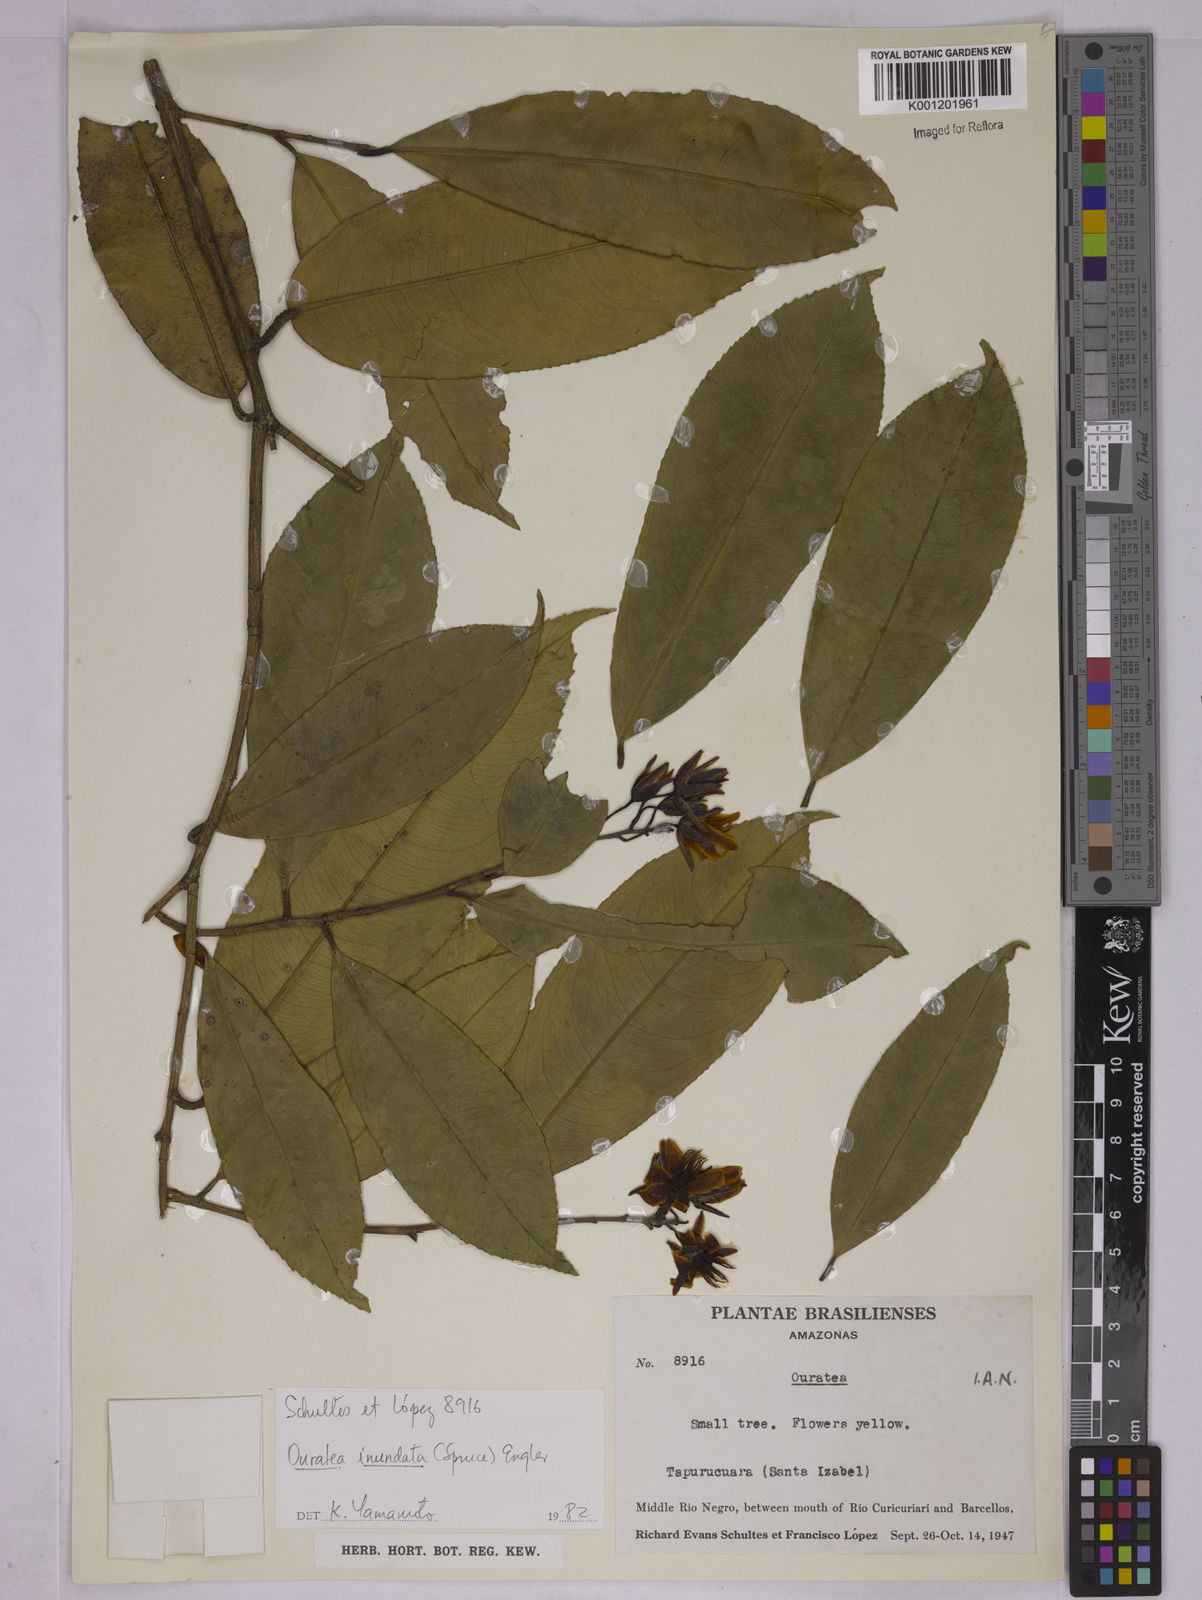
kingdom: Plantae
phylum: Tracheophyta
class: Magnoliopsida
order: Malpighiales
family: Ochnaceae
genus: Ouratea
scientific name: Ouratea inundata
